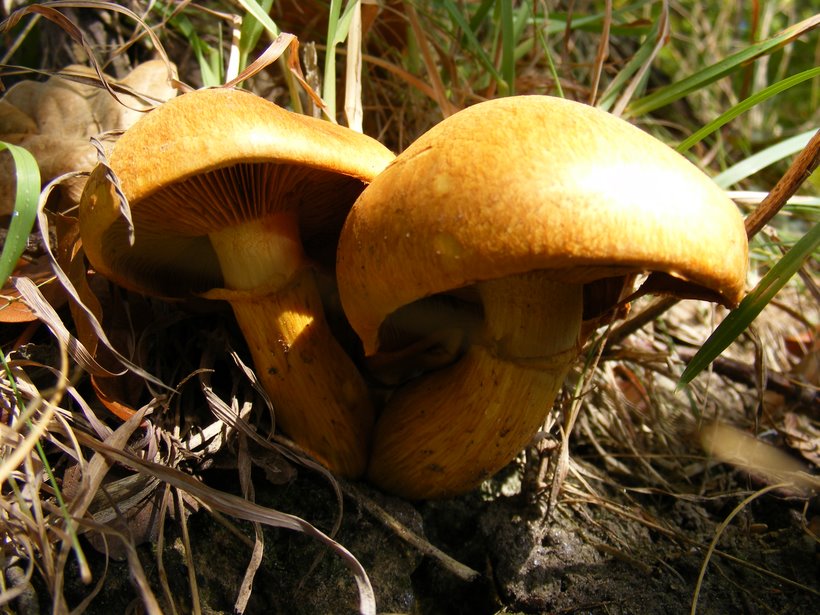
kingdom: Fungi
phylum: Basidiomycota
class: Agaricomycetes
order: Agaricales
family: Hymenogastraceae
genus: Gymnopilus
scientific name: Gymnopilus spectabilis
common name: fibret flammehat
